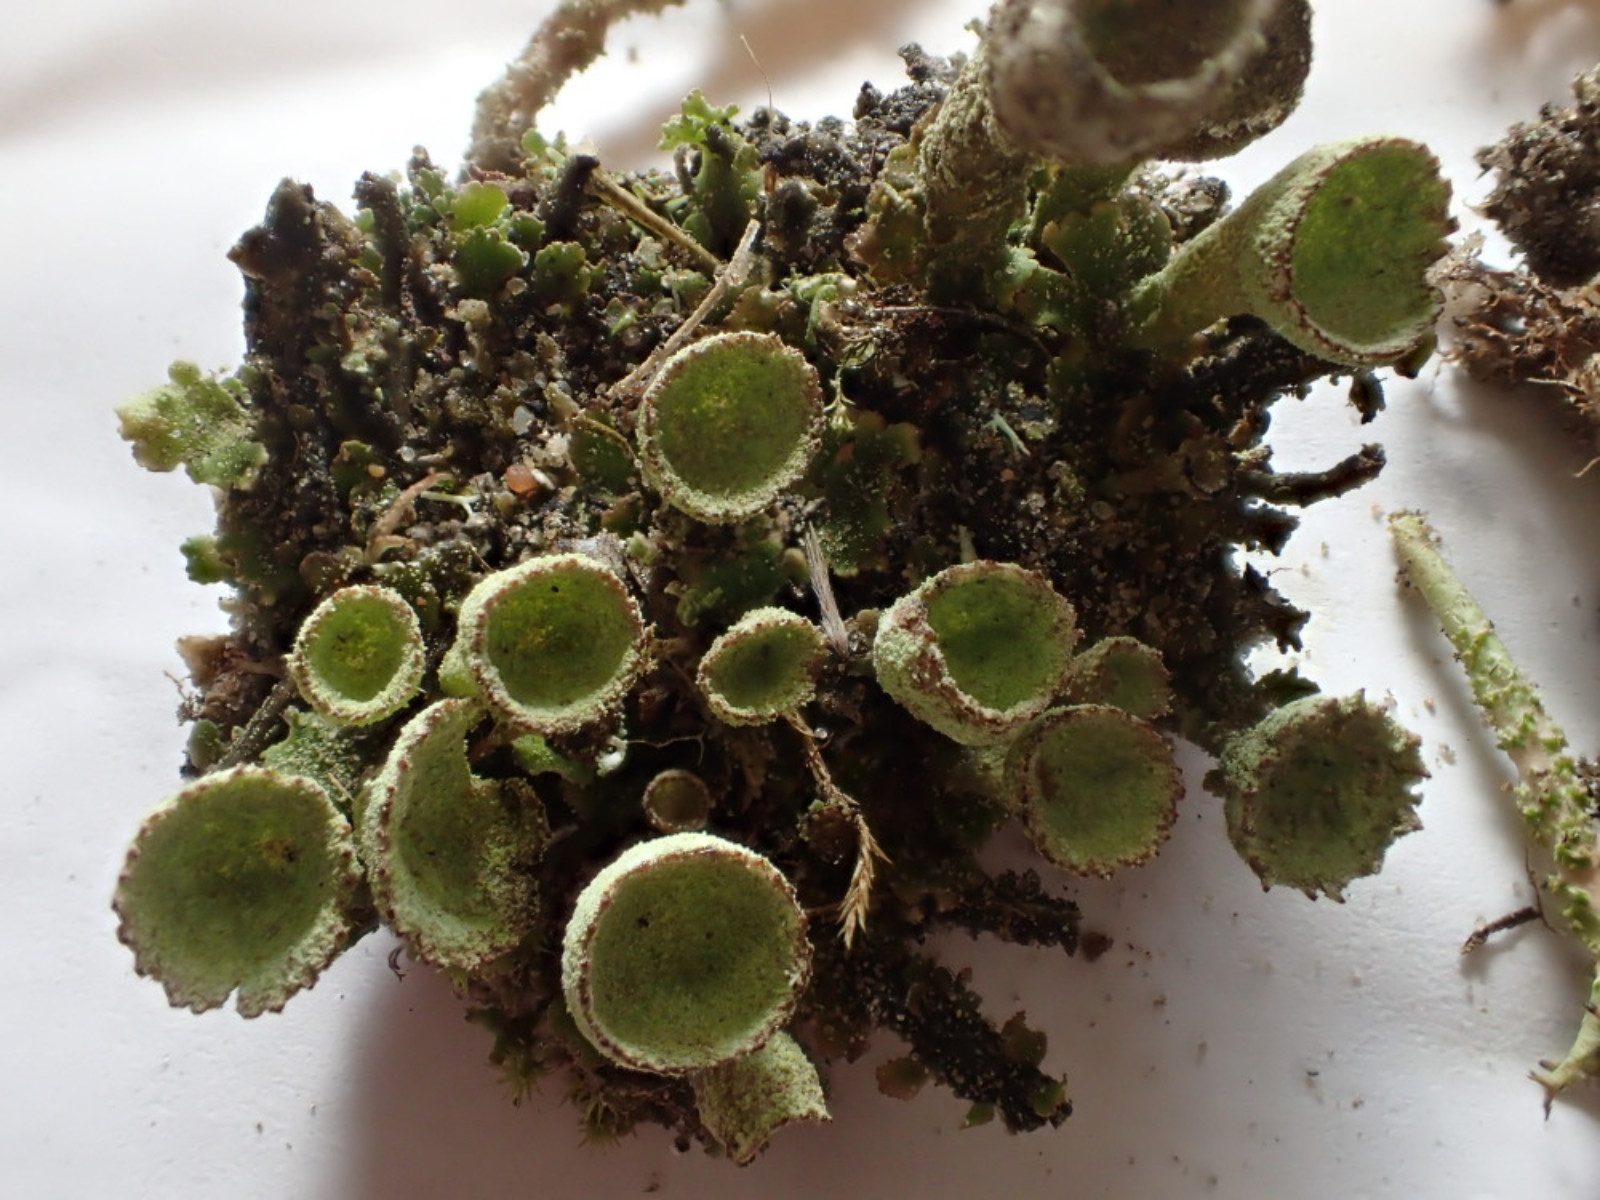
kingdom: Fungi
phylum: Ascomycota
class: Lecanoromycetes
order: Lecanorales
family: Cladoniaceae
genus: Cladonia
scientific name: Cladonia humilis
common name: lav bægerlav
